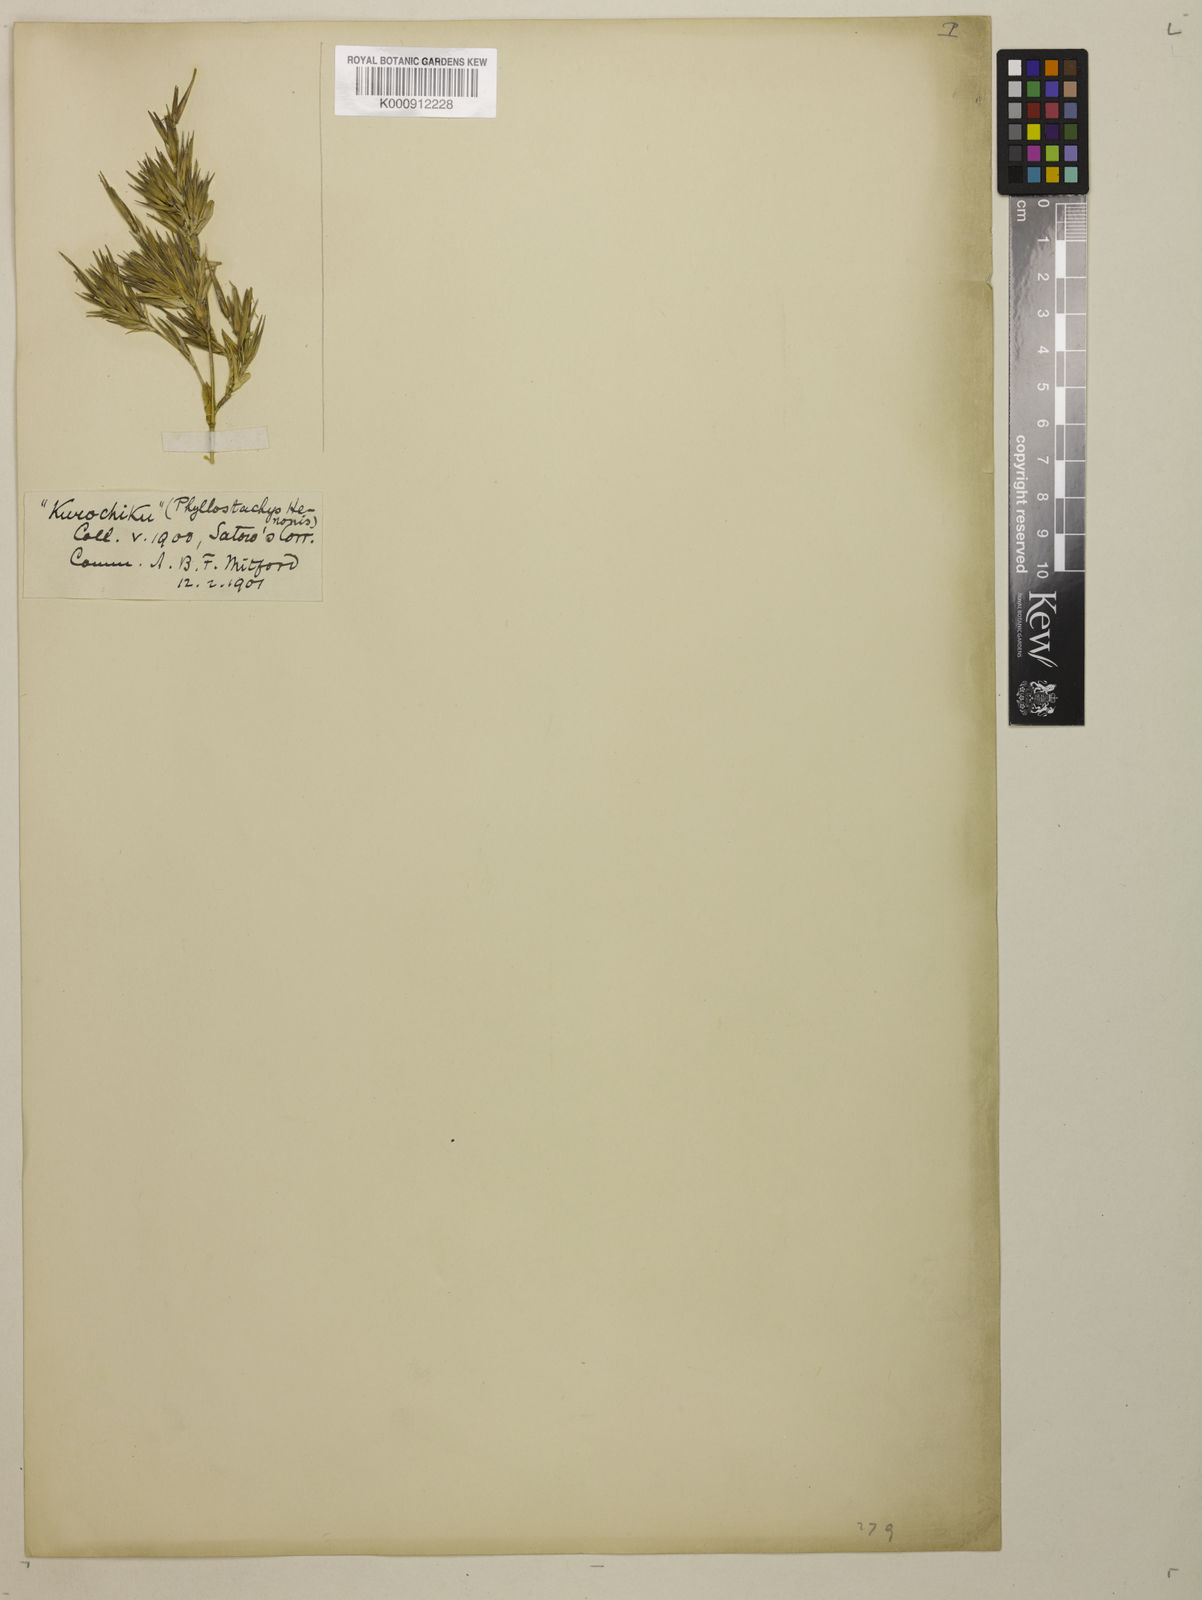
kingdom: Plantae
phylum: Tracheophyta
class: Liliopsida
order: Poales
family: Poaceae
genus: Phyllostachys
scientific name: Phyllostachys nigra
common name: Black bamboo
